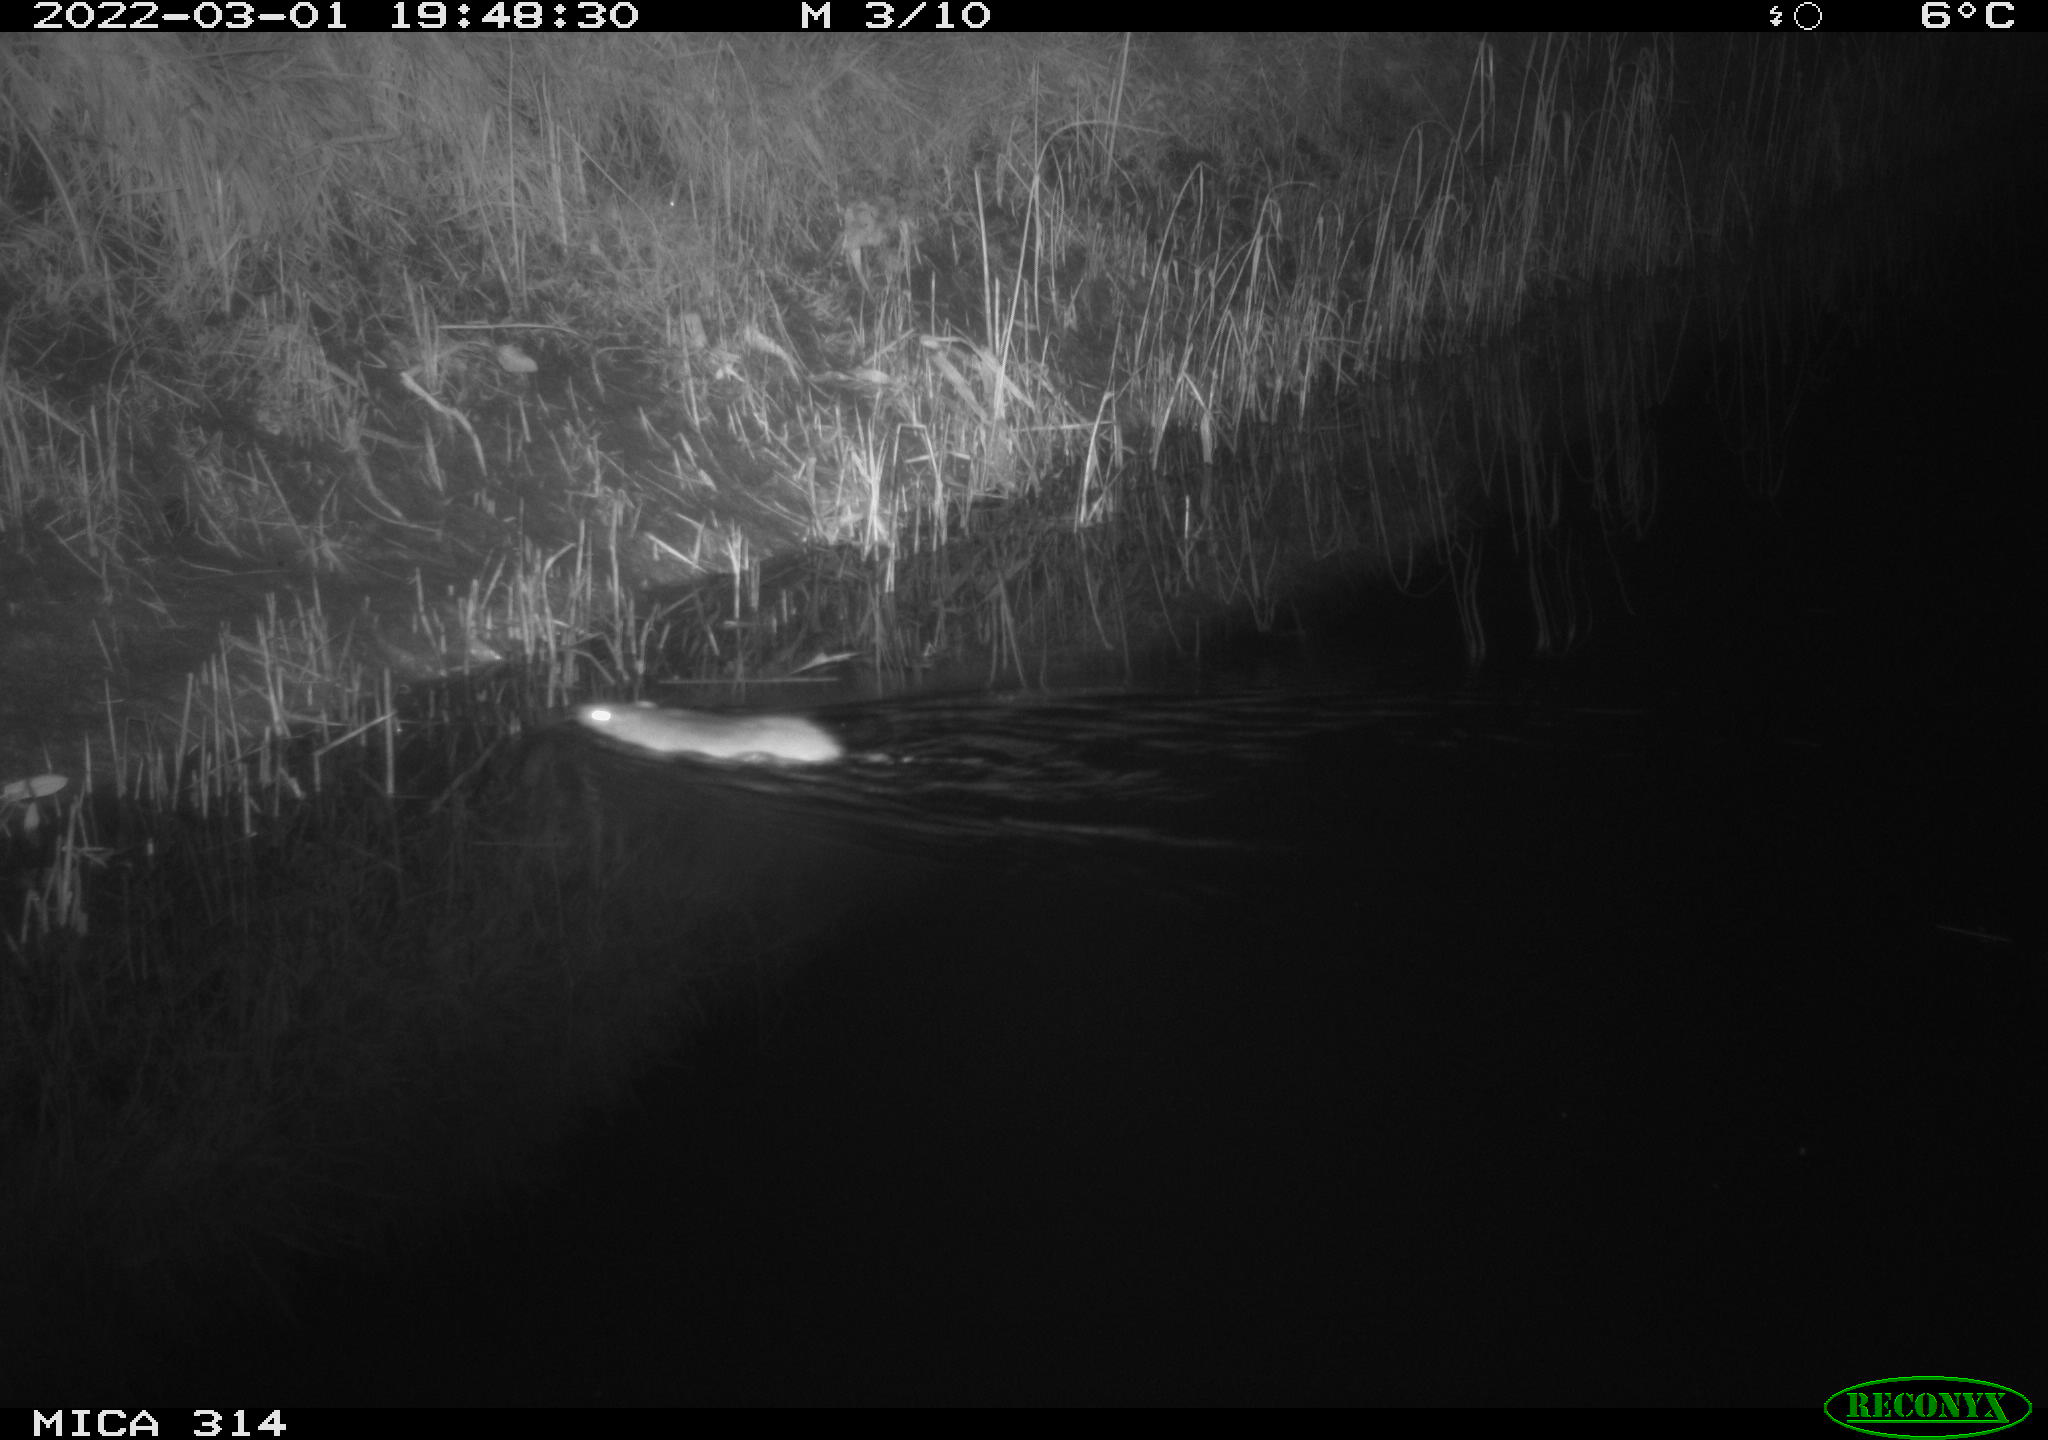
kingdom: Animalia
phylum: Chordata
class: Mammalia
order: Rodentia
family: Muridae
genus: Rattus
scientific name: Rattus norvegicus
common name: Brown rat
